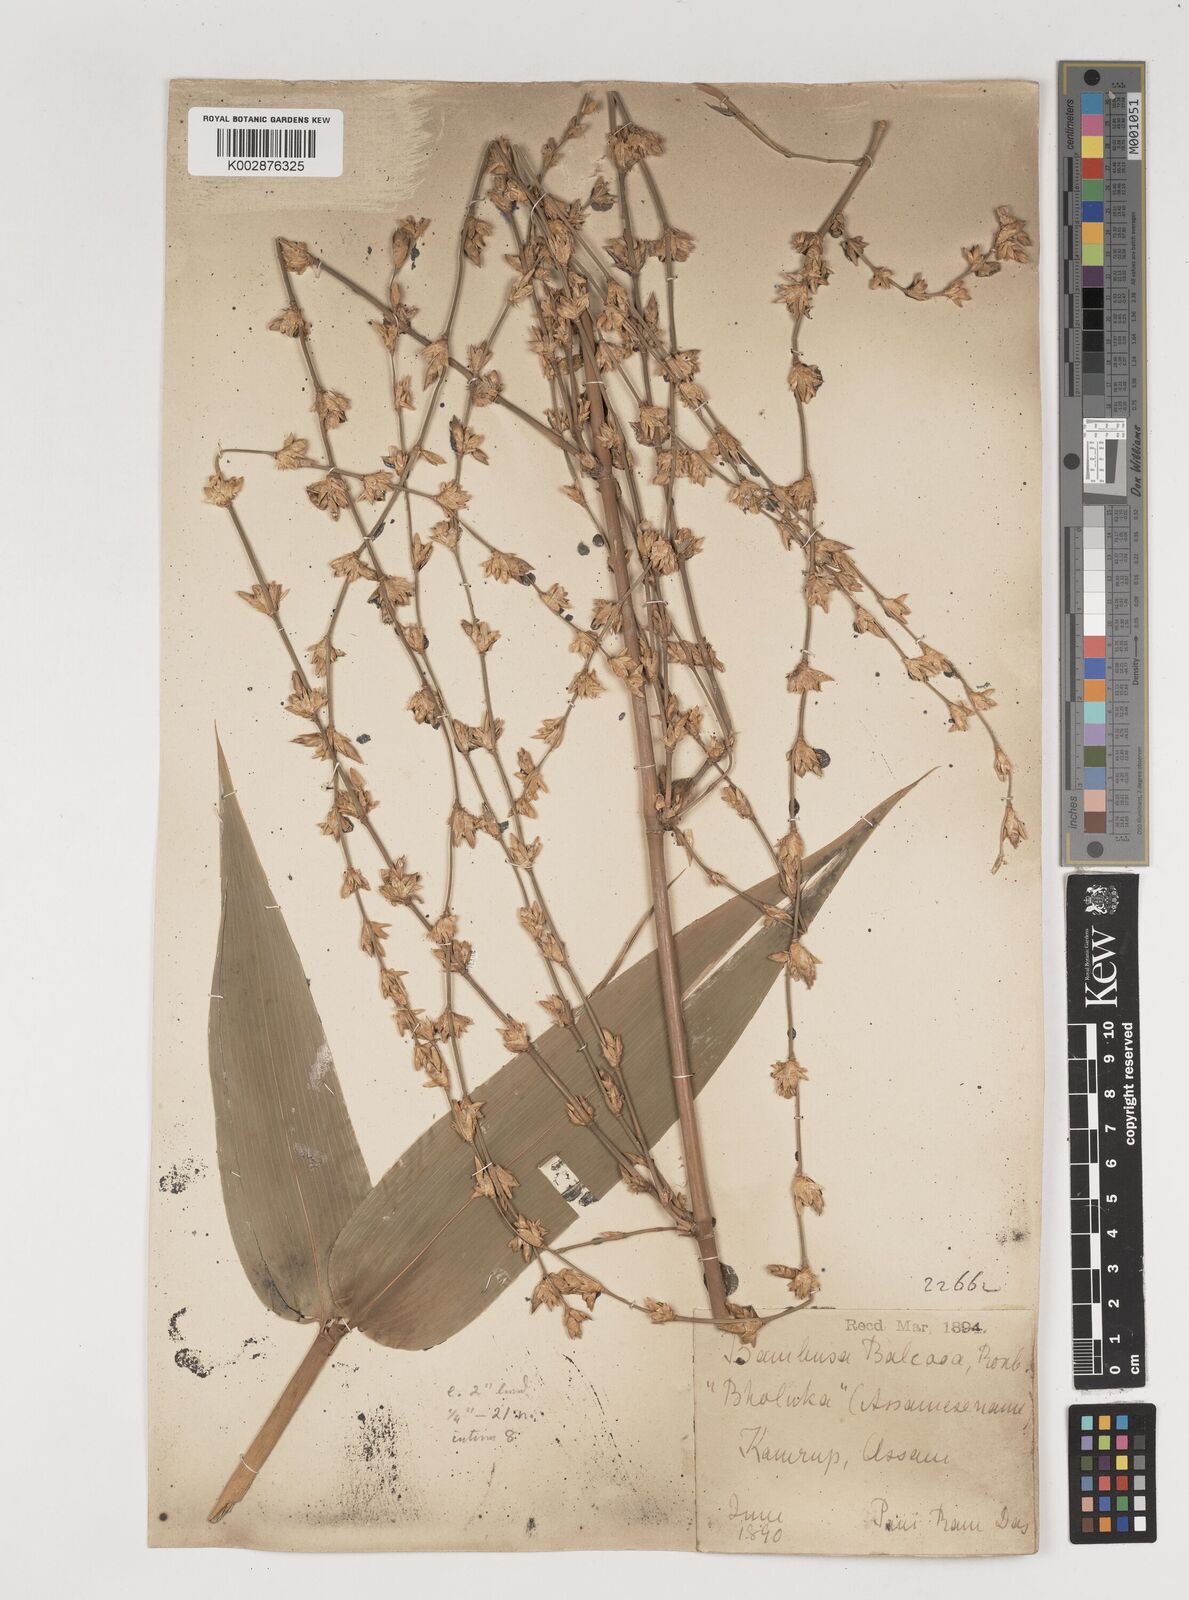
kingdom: Plantae
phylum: Tracheophyta
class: Liliopsida
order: Poales
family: Poaceae
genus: Bambusa
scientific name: Bambusa balcooa
